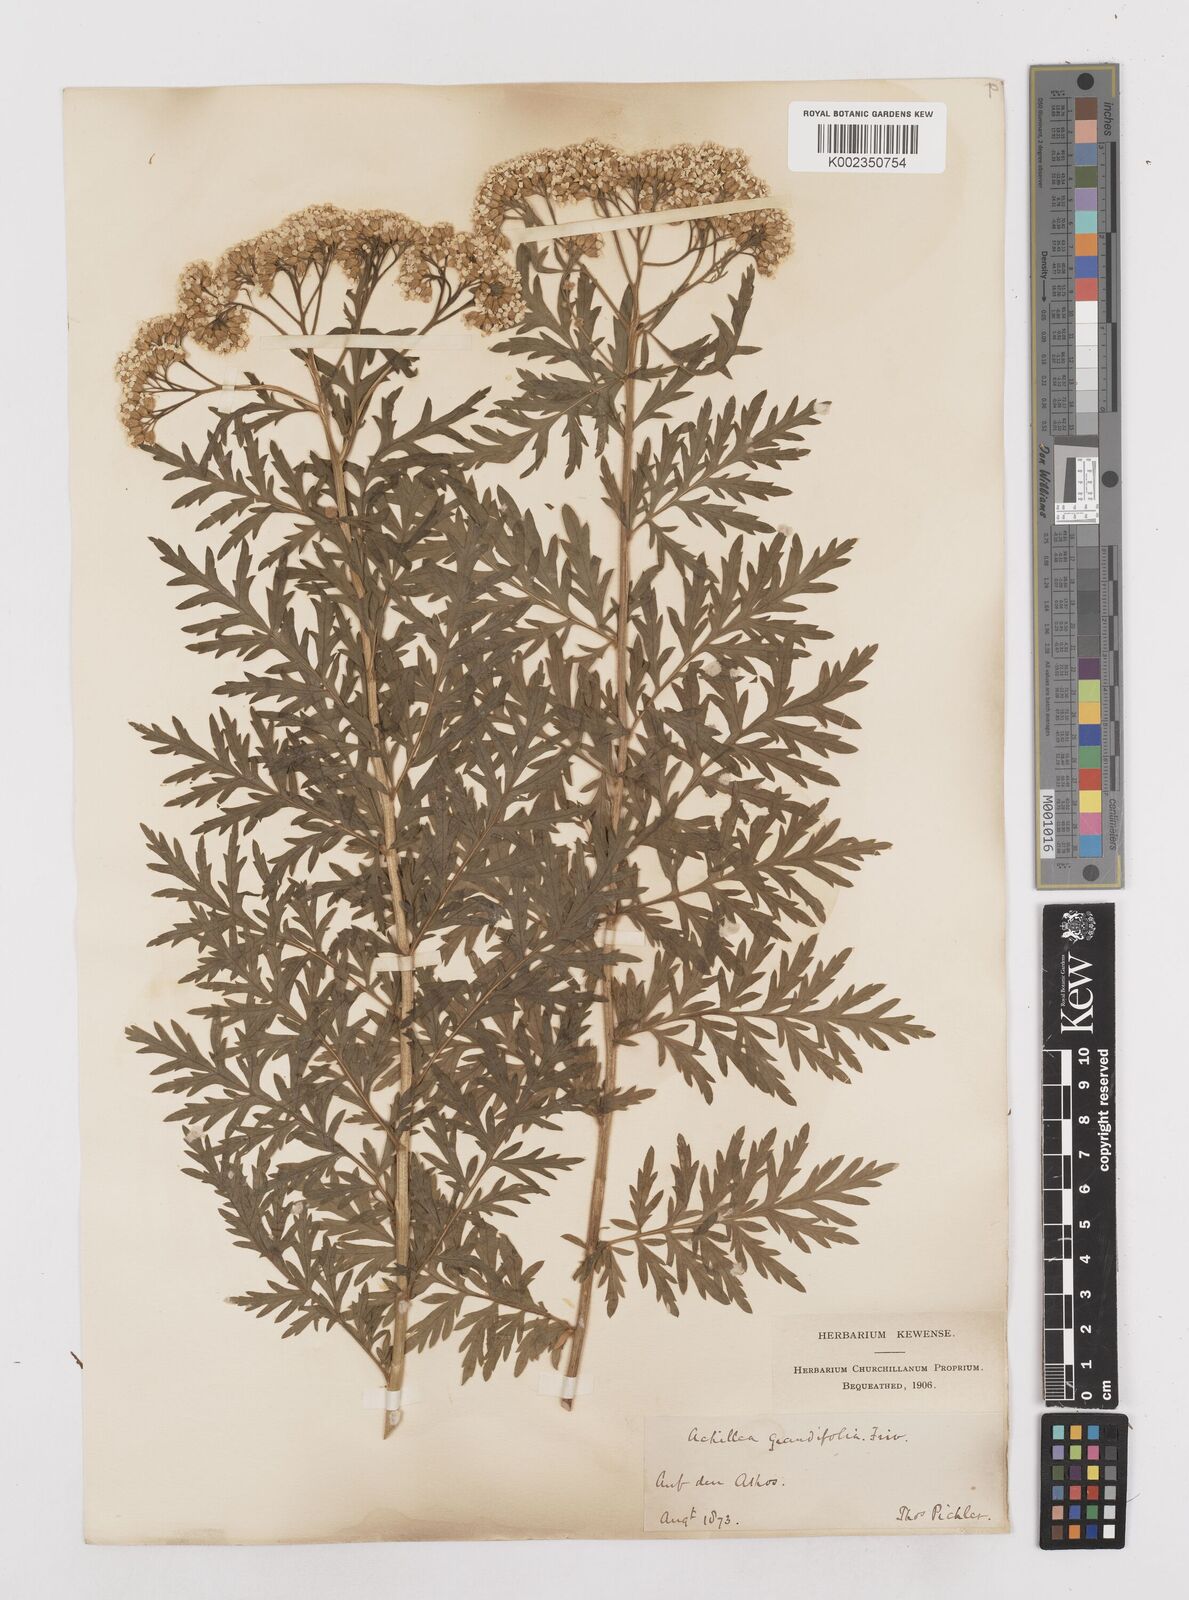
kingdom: Plantae
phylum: Tracheophyta
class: Magnoliopsida
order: Asterales
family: Asteraceae
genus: Achillea
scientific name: Achillea grandifolia
